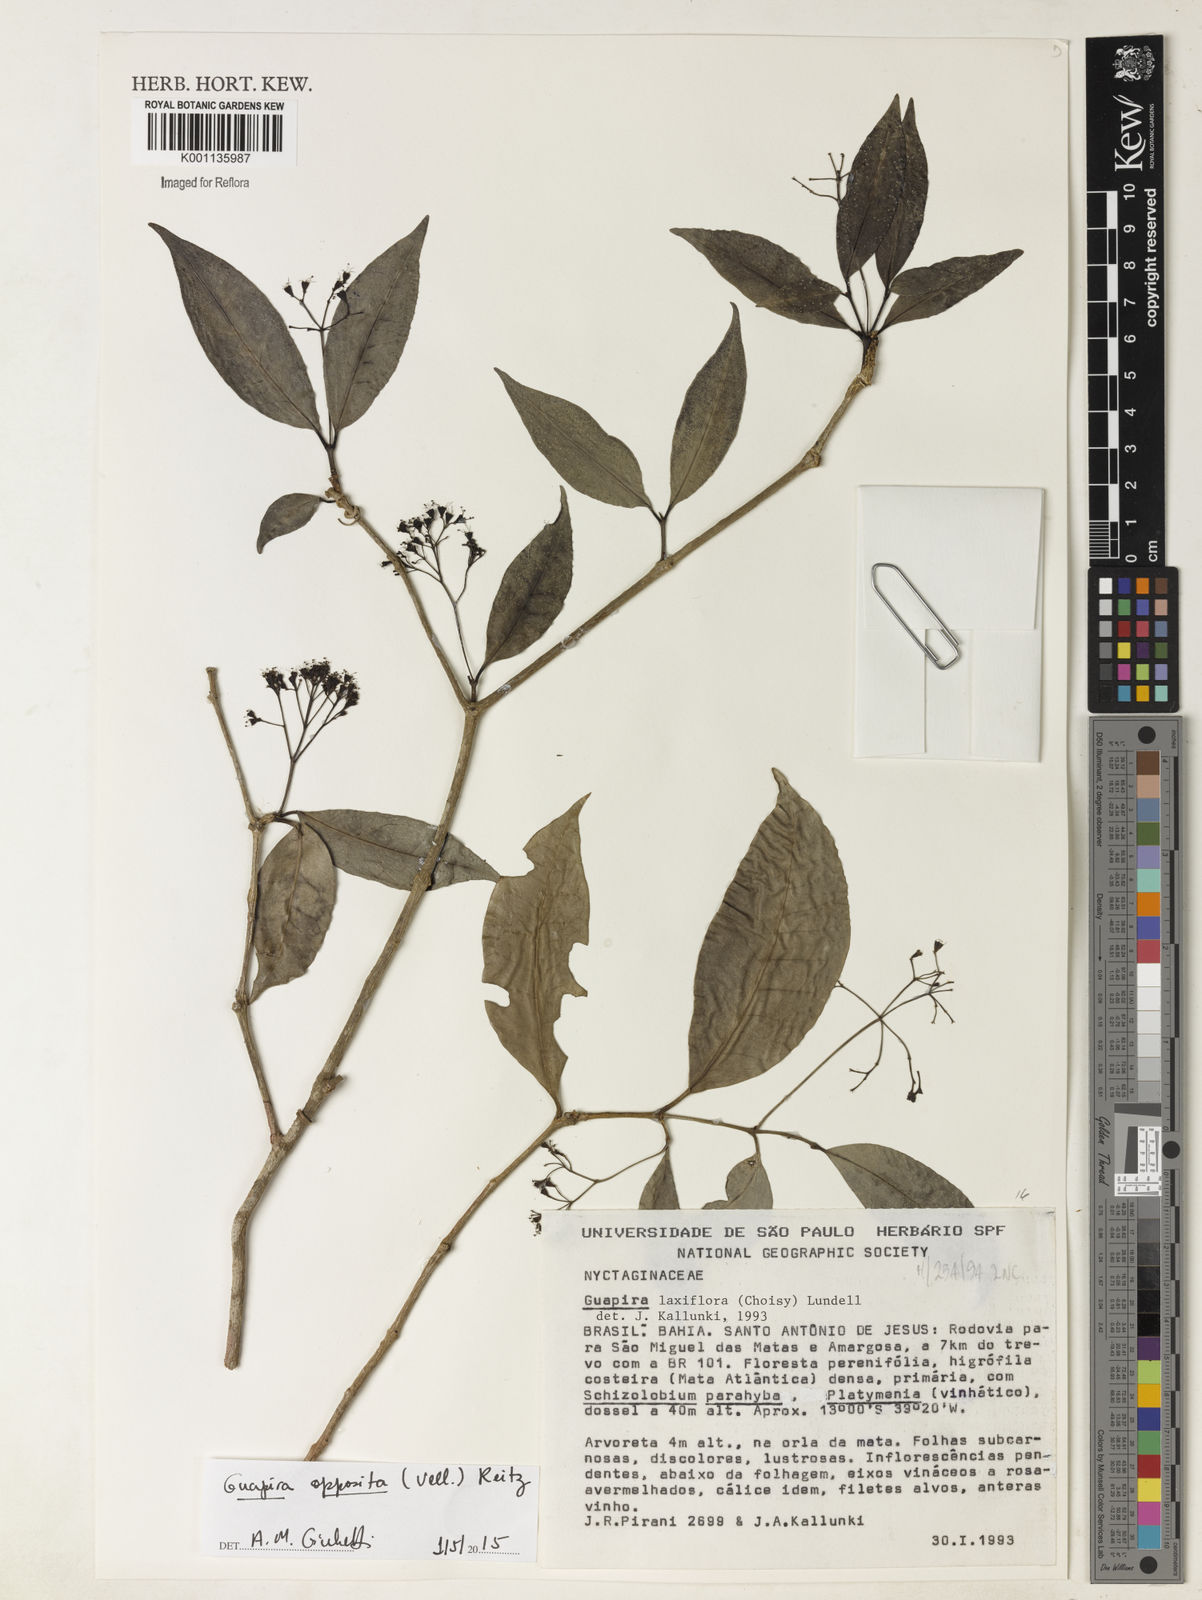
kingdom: Plantae
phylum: Tracheophyta
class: Magnoliopsida
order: Caryophyllales
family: Nyctaginaceae
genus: Guapira
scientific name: Guapira opposita
